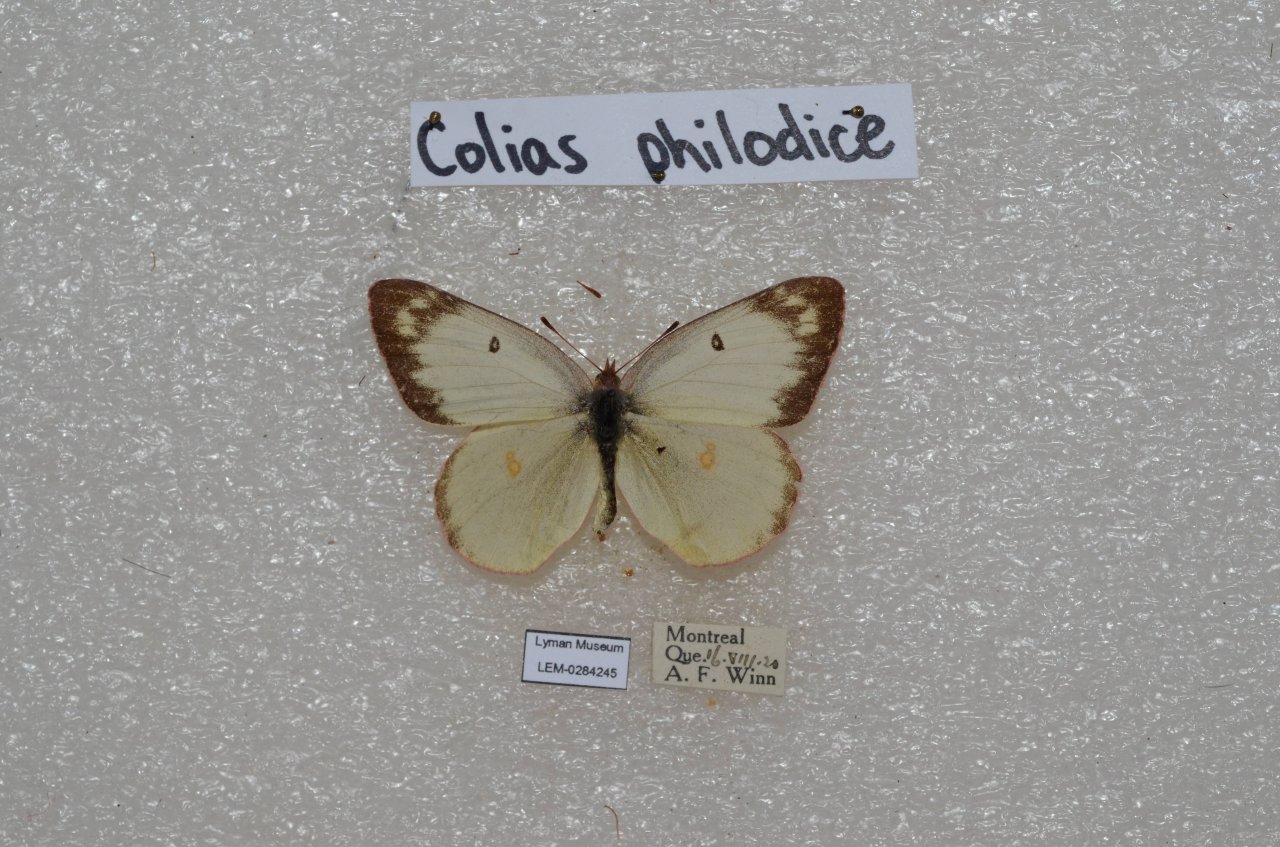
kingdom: Animalia
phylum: Arthropoda
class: Insecta
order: Lepidoptera
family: Pieridae
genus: Colias
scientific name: Colias philodice
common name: Clouded Sulphur
